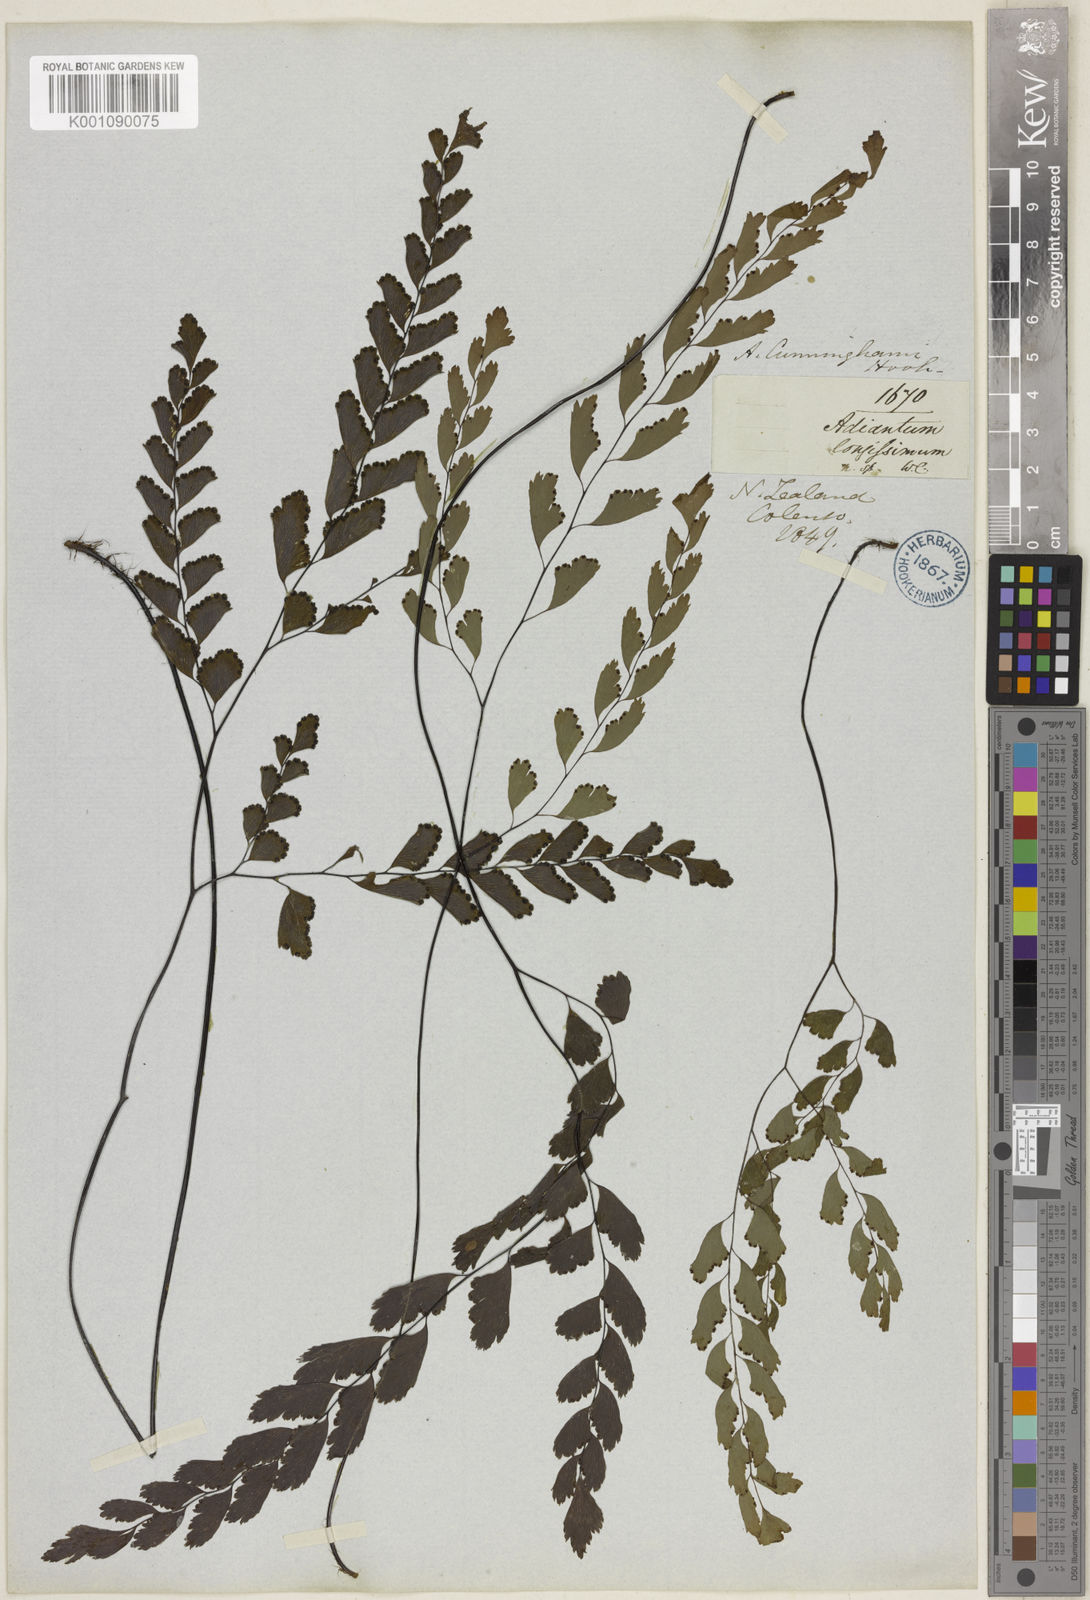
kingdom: Plantae
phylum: Tracheophyta
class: Polypodiopsida
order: Polypodiales
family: Pteridaceae
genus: Adiantum
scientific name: Adiantum cunninghamii
